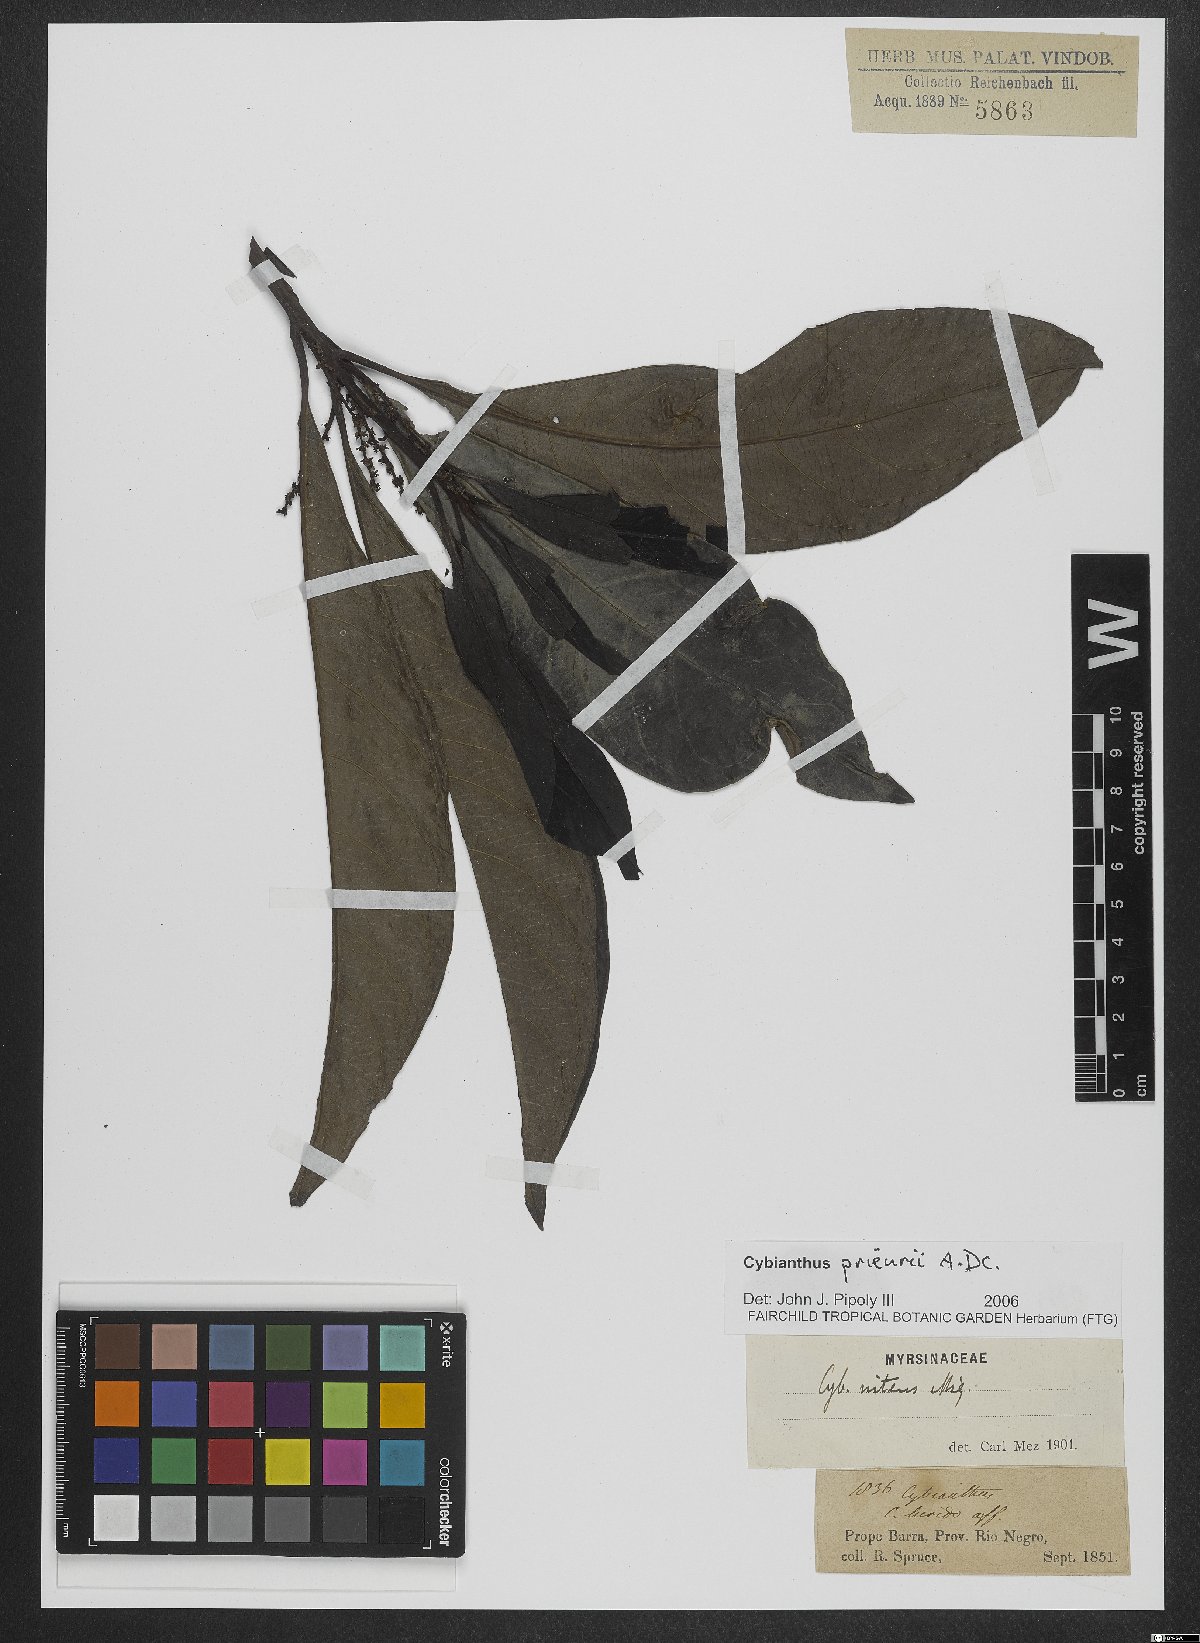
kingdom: Plantae
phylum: Tracheophyta
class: Magnoliopsida
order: Ericales
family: Primulaceae
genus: Cybianthus
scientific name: Cybianthus prieurii
